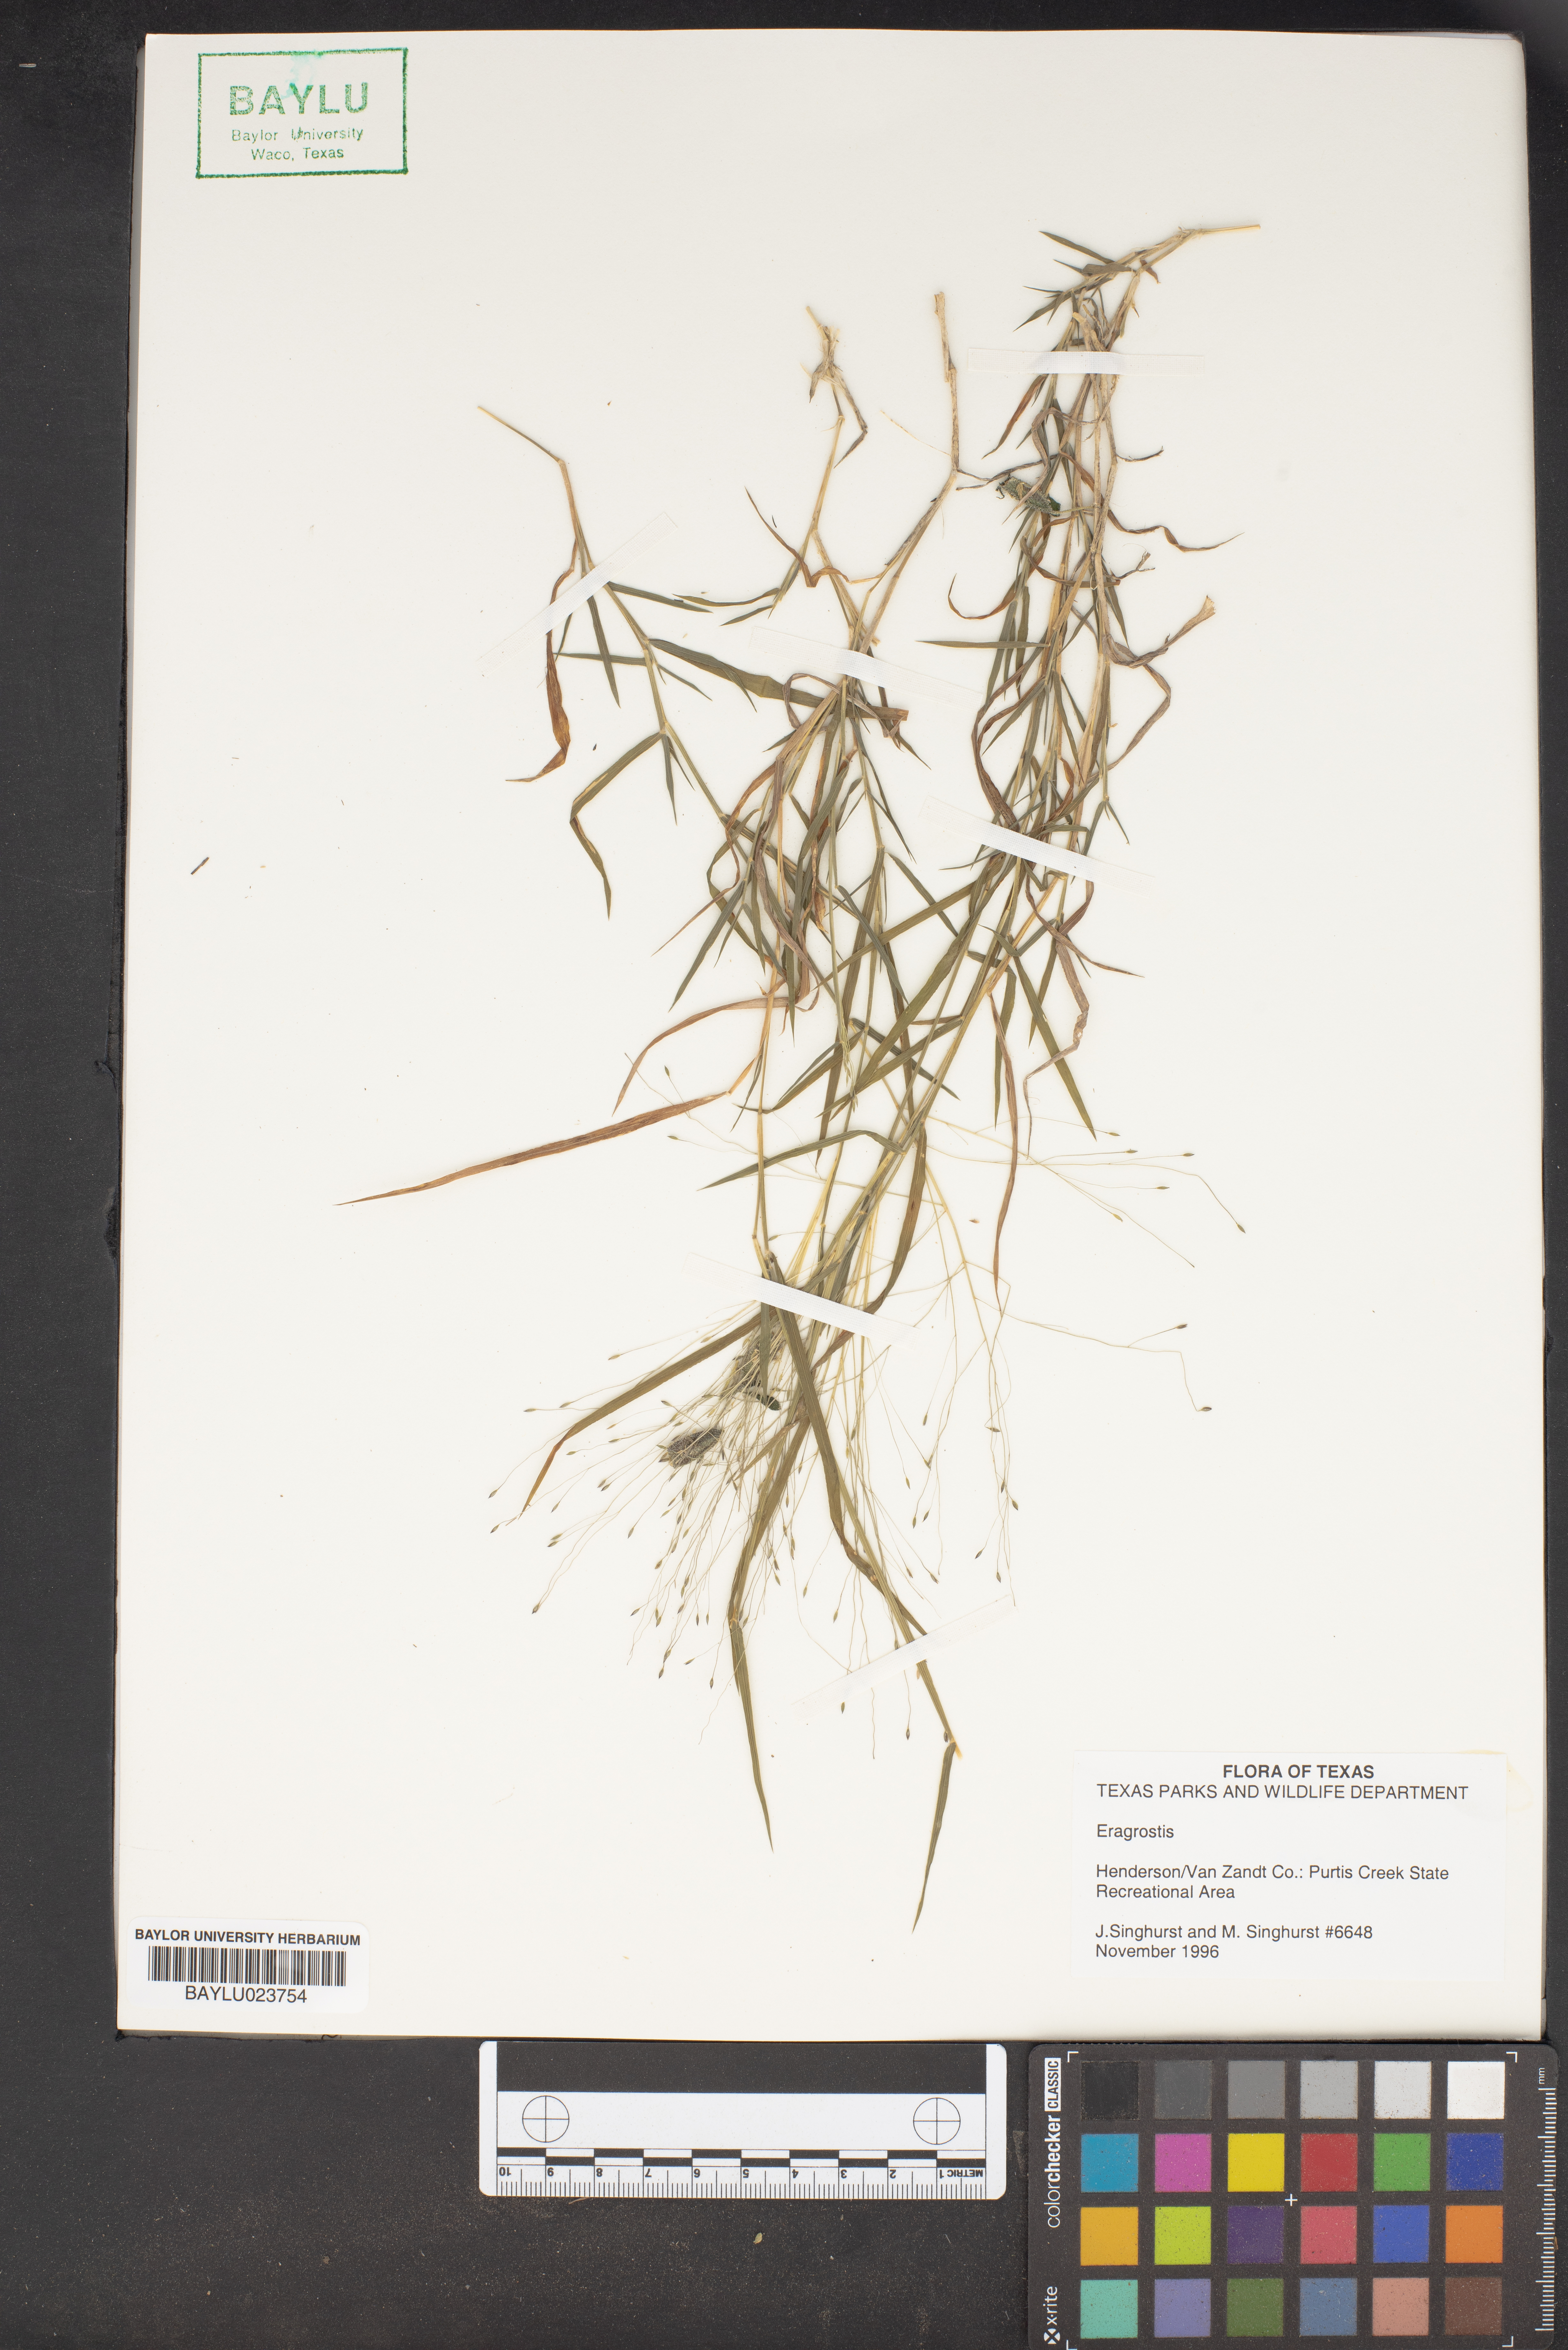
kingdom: Plantae
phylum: Tracheophyta
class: Liliopsida
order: Poales
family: Poaceae
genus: Eragrostis
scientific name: Eragrostis
